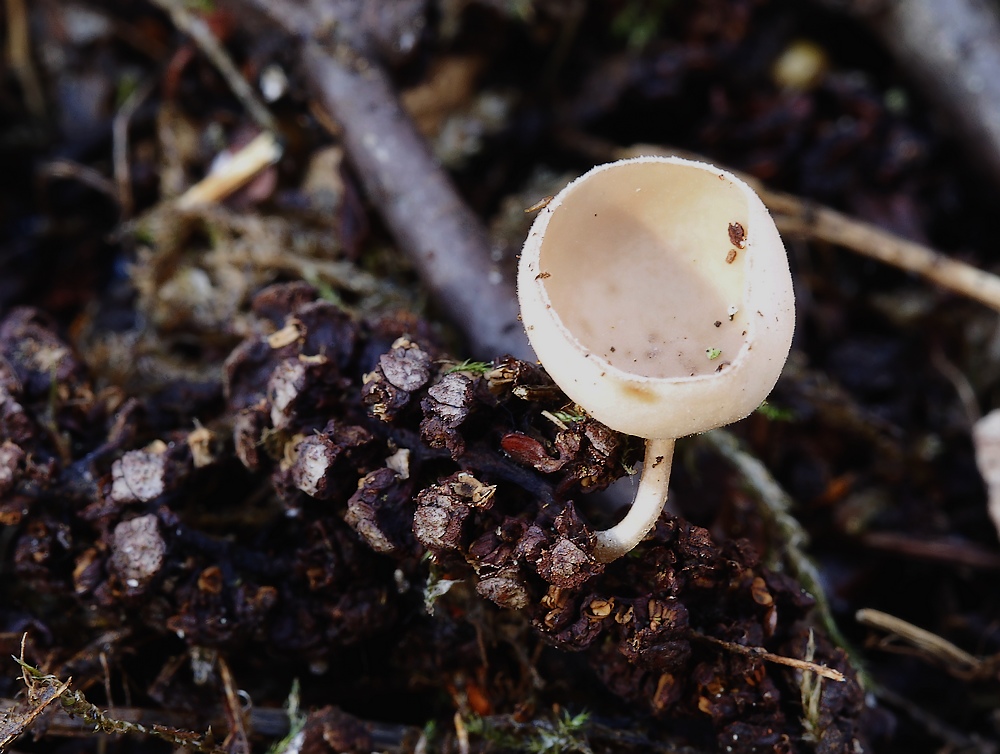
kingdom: Fungi
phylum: Ascomycota
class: Leotiomycetes
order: Helotiales
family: Sclerotiniaceae
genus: Ciboria
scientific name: Ciboria amentacea
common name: ellerakle-knoldskive
